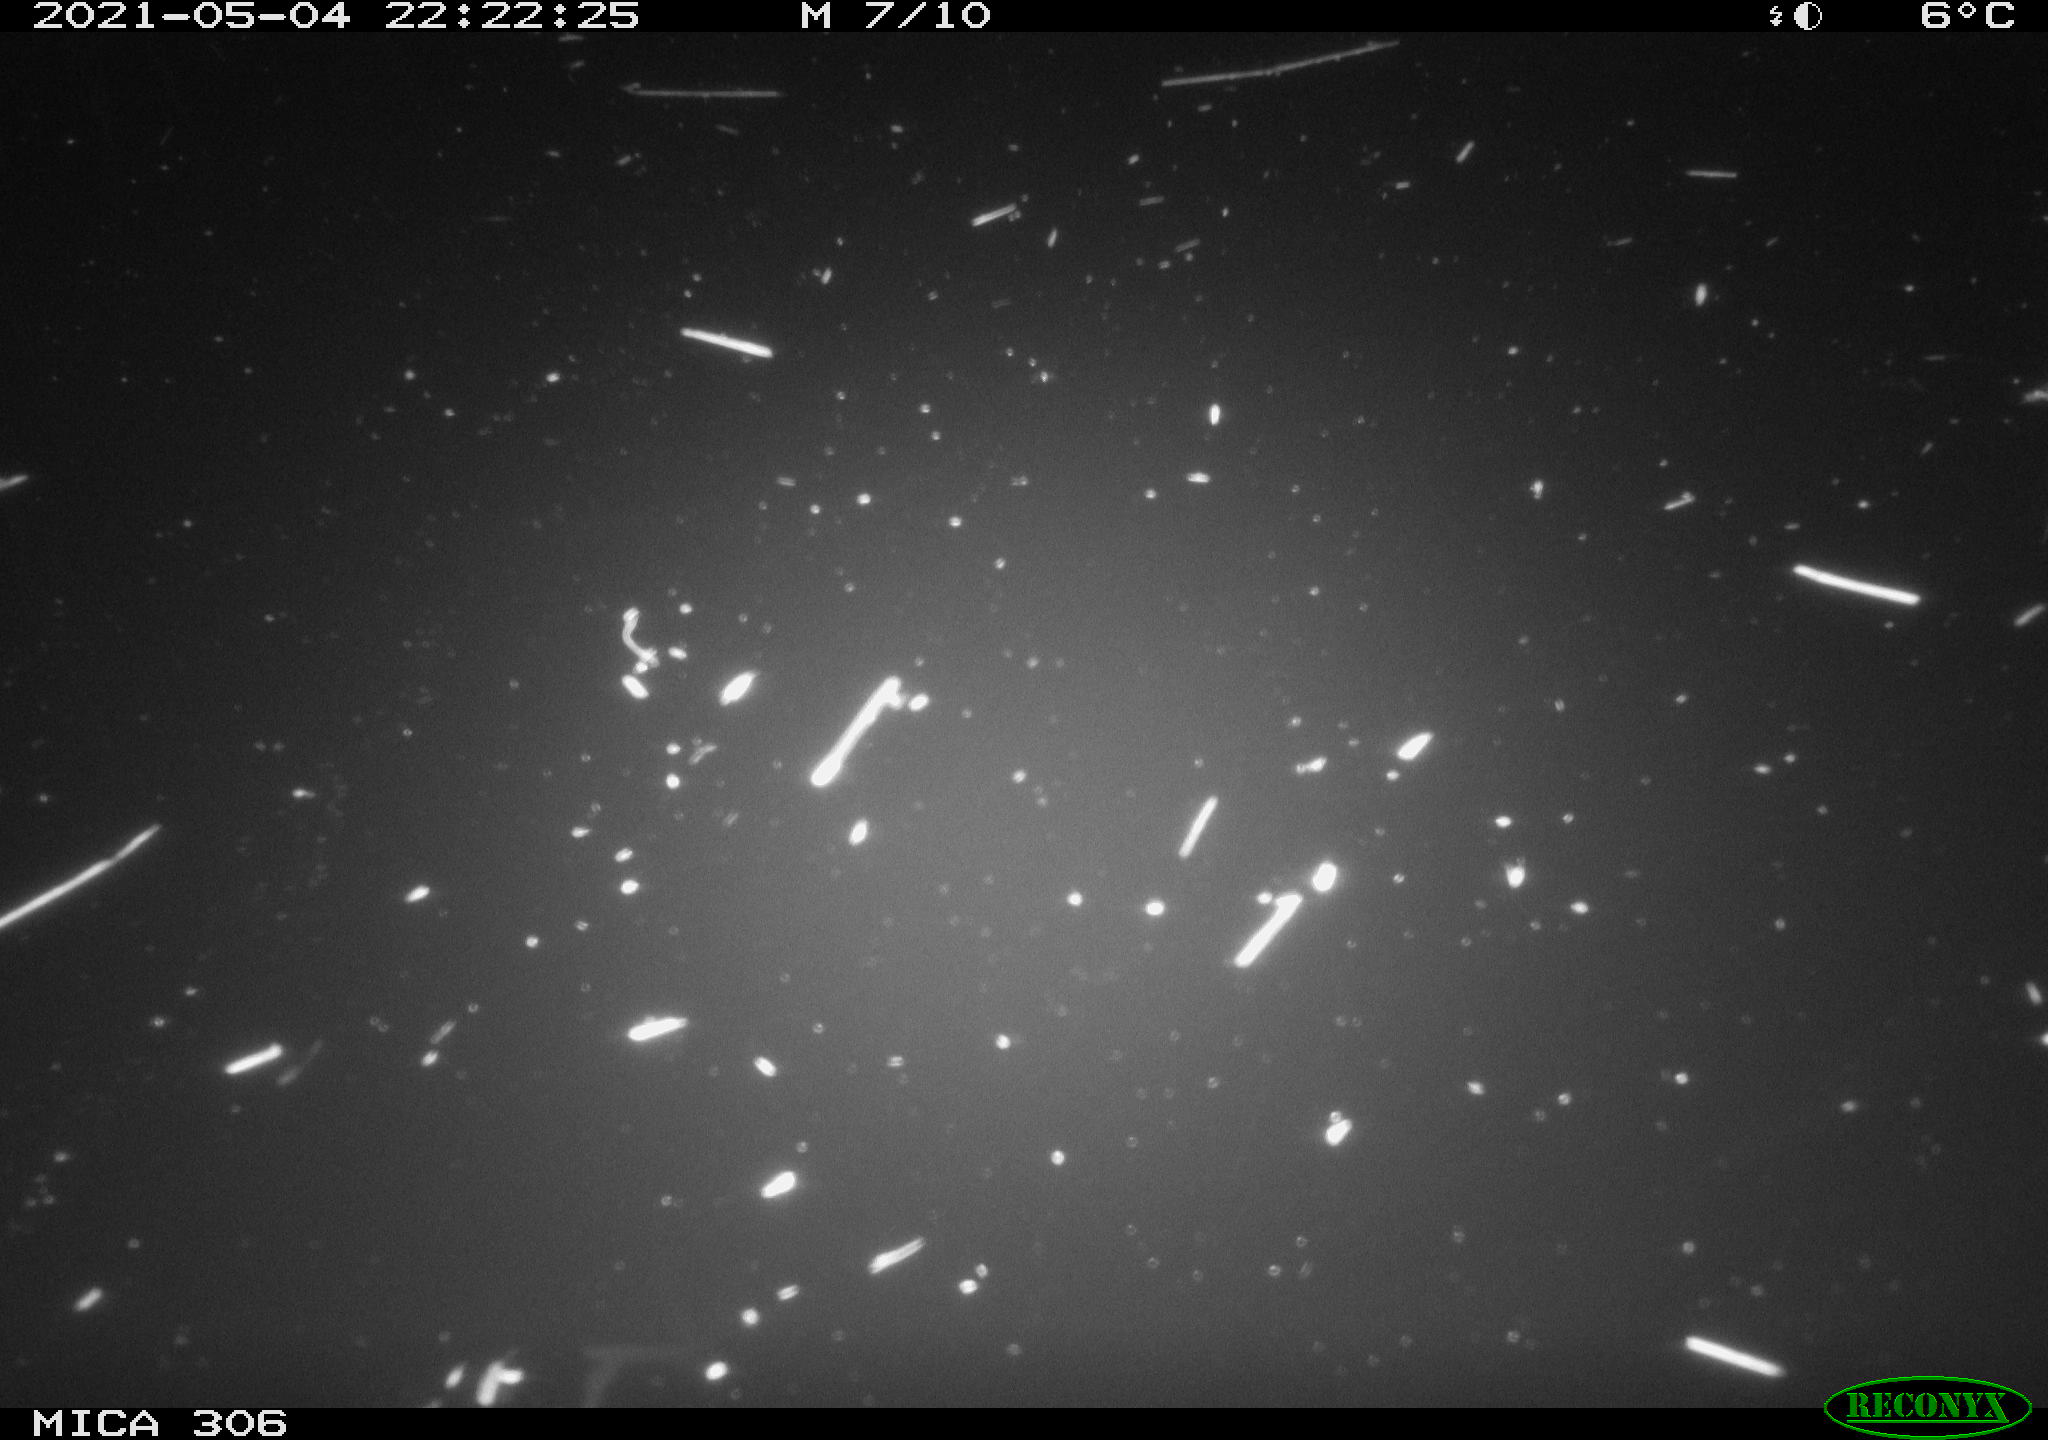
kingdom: Animalia
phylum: Chordata
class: Aves
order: Anseriformes
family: Anatidae
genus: Anas
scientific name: Anas platyrhynchos
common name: Mallard
